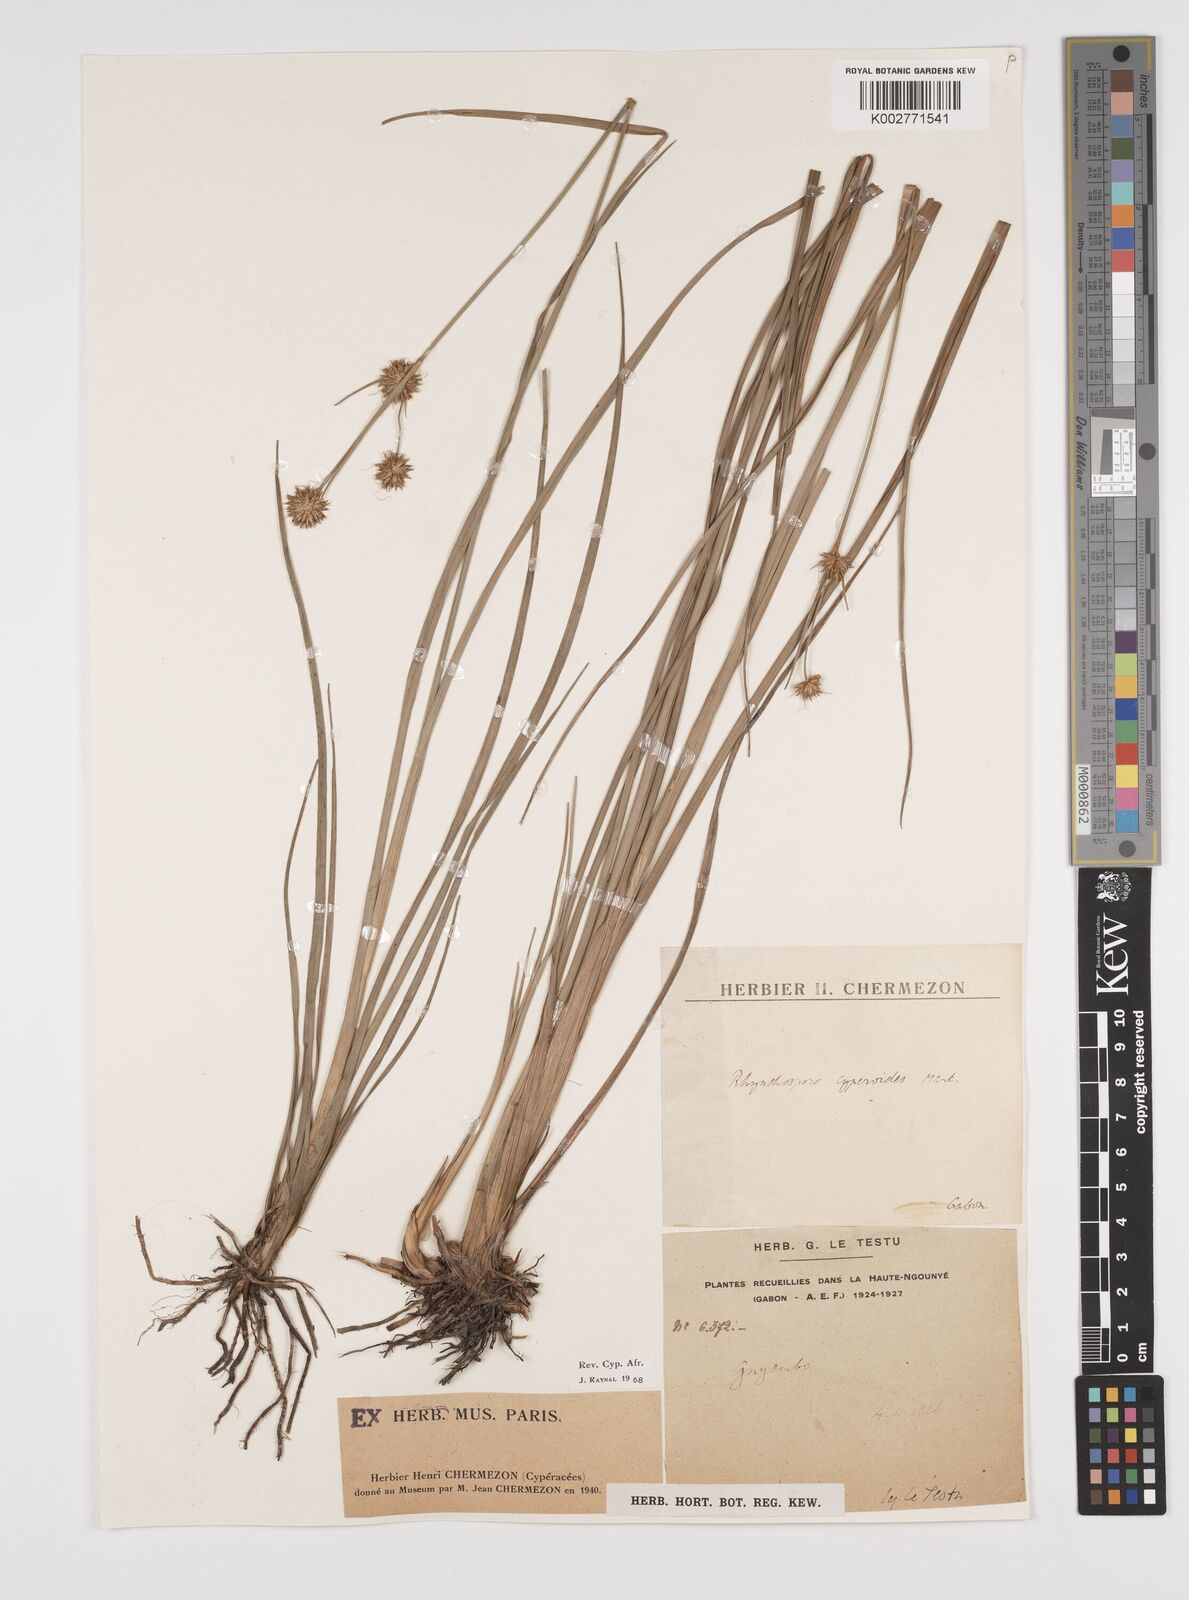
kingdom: Plantae
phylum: Tracheophyta
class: Liliopsida
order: Poales
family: Cyperaceae
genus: Rhynchospora
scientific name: Rhynchospora holoschoenoides
